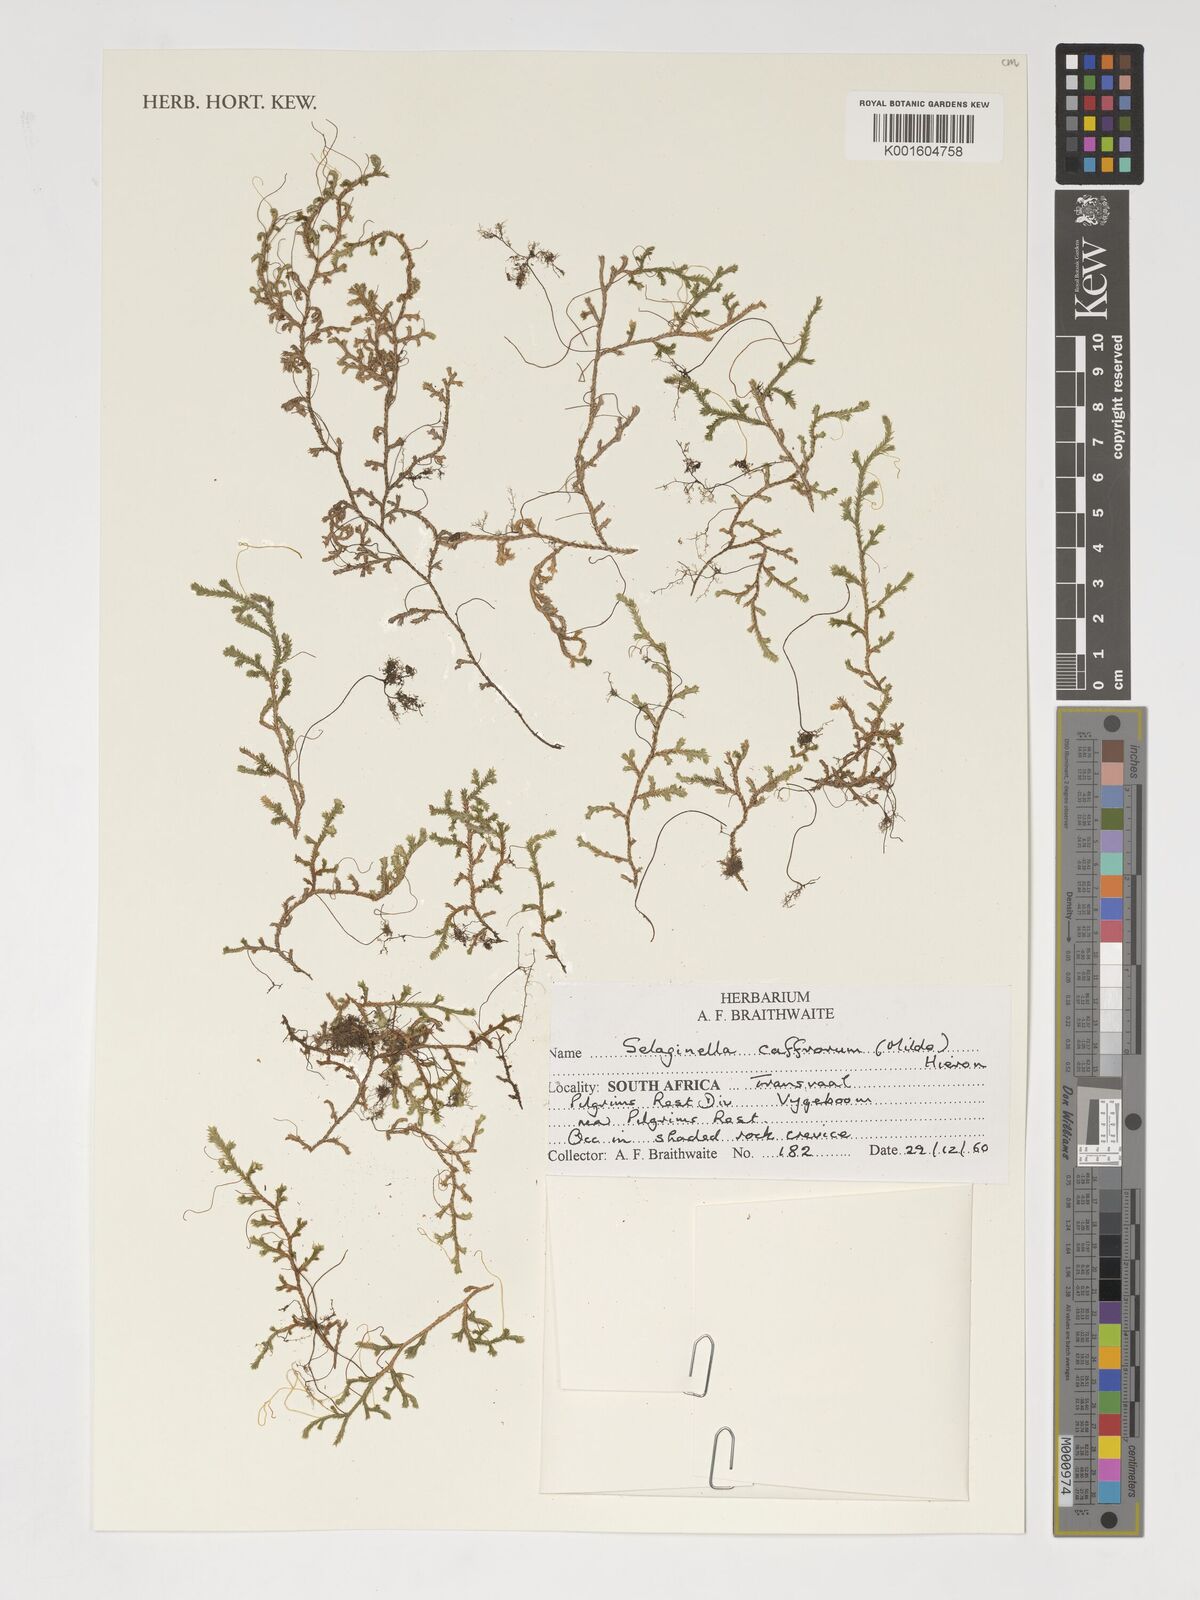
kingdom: Plantae
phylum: Tracheophyta
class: Lycopodiopsida
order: Selaginellales
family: Selaginellaceae
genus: Selaginella
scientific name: Selaginella caffrorum
